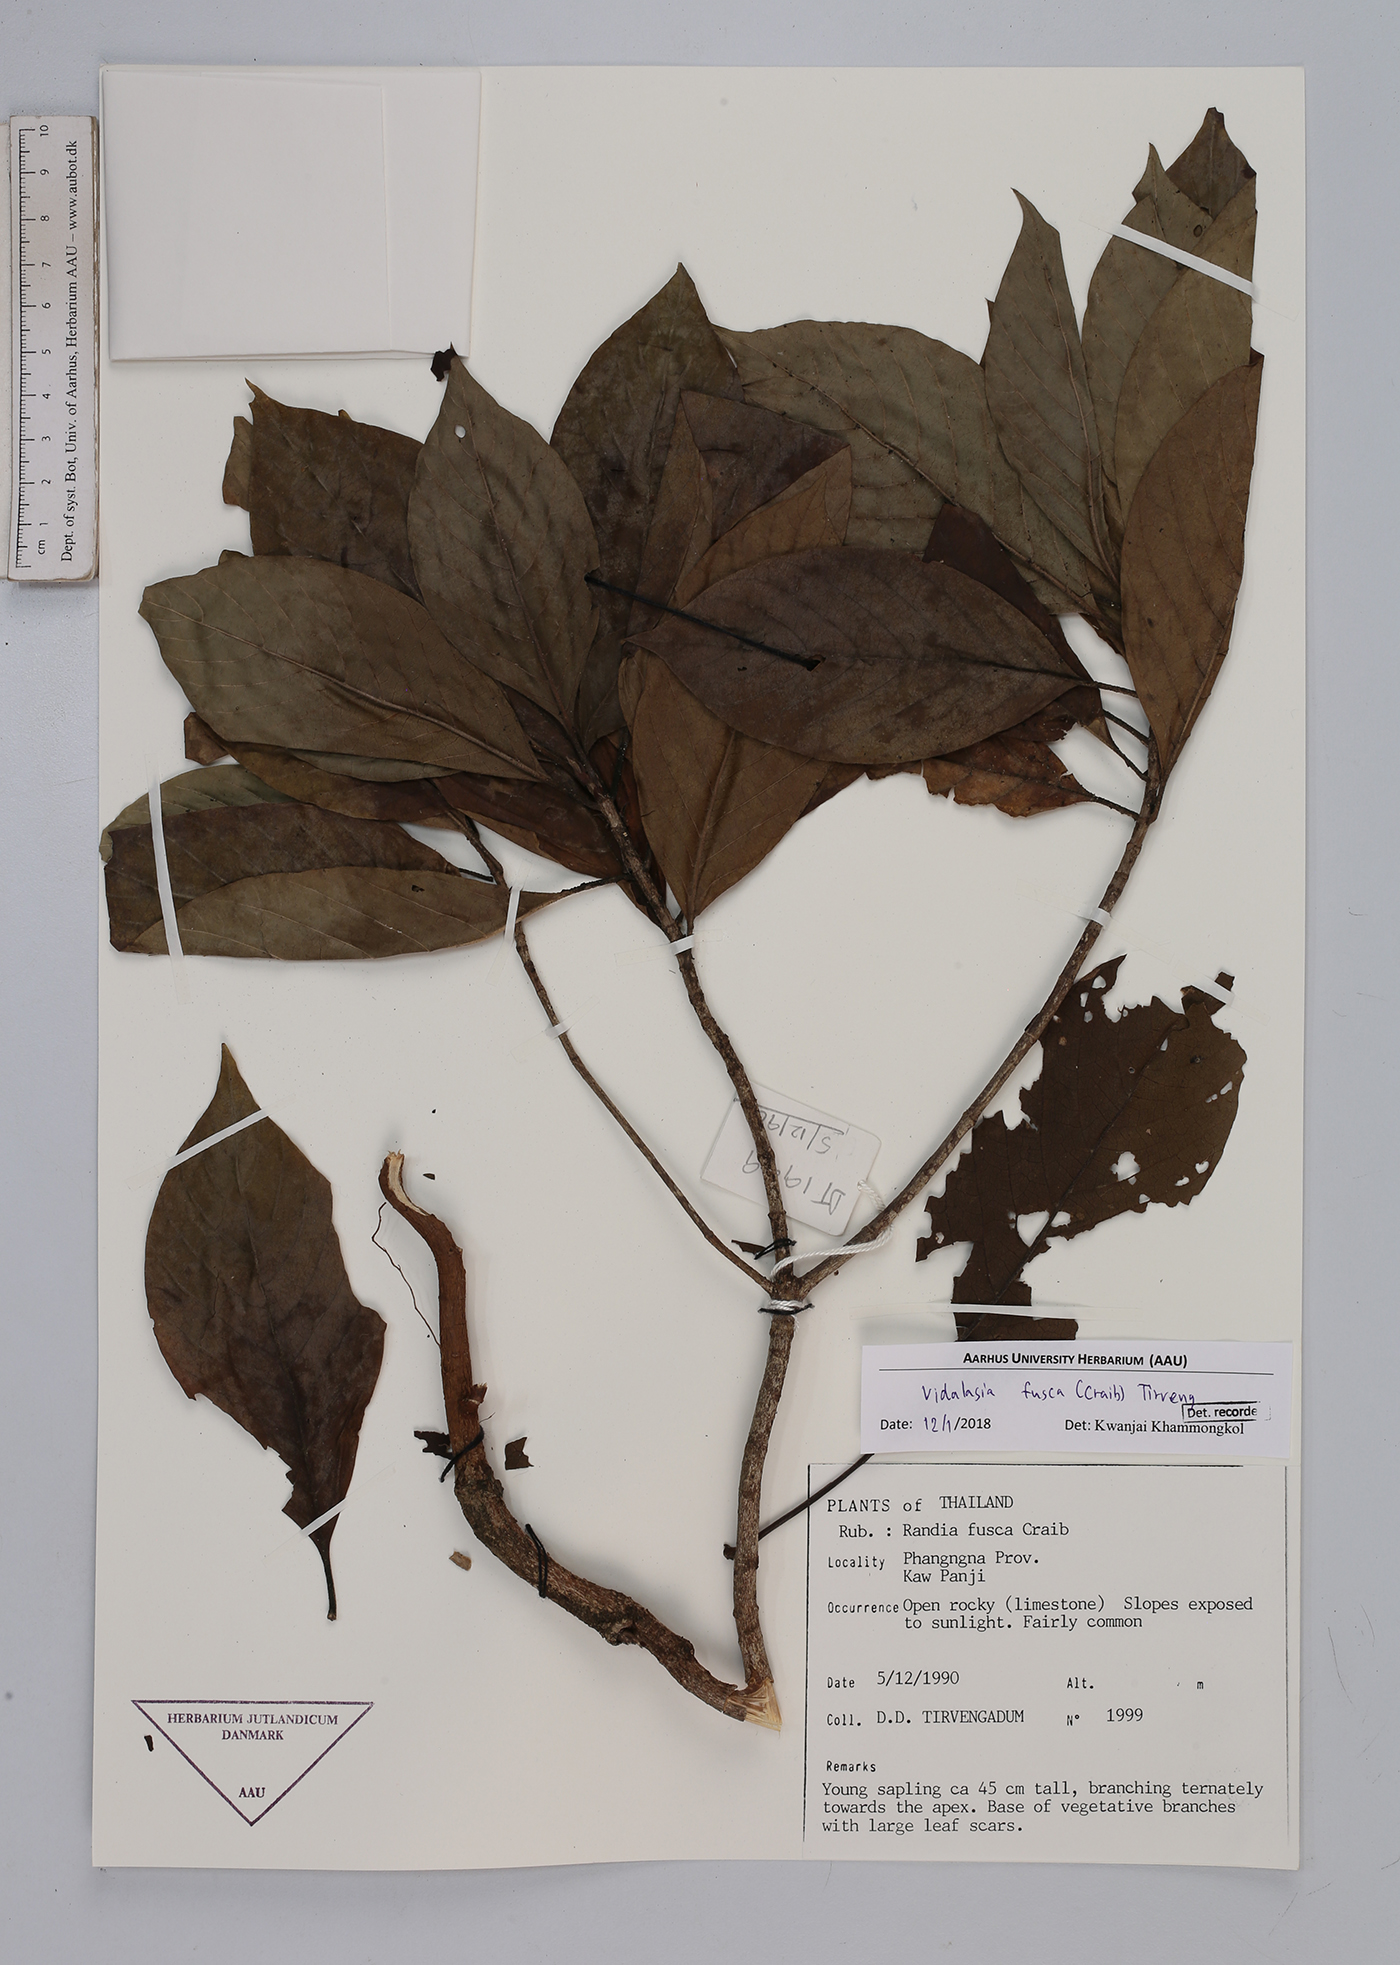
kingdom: Plantae
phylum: Tracheophyta
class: Magnoliopsida
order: Gentianales
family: Rubiaceae
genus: Vidalasia
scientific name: Vidalasia fusca
